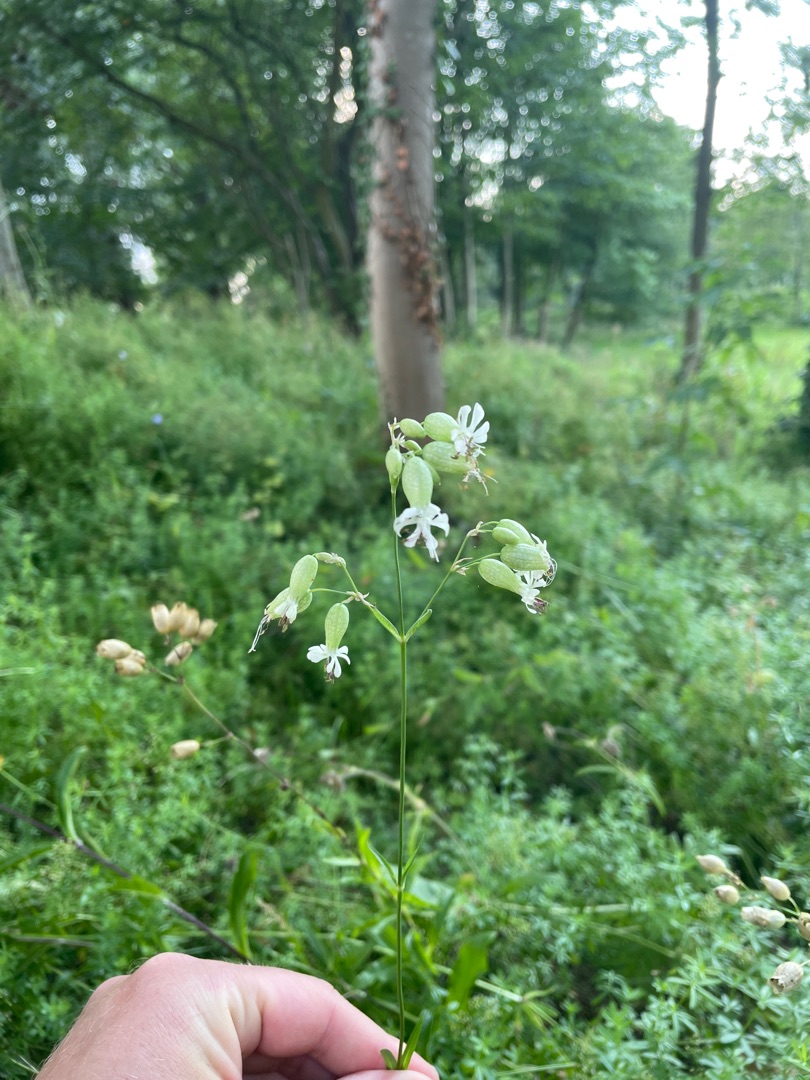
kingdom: Plantae
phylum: Tracheophyta
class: Magnoliopsida
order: Caryophyllales
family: Caryophyllaceae
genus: Silene
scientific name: Silene vulgaris
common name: Blæresmælde
